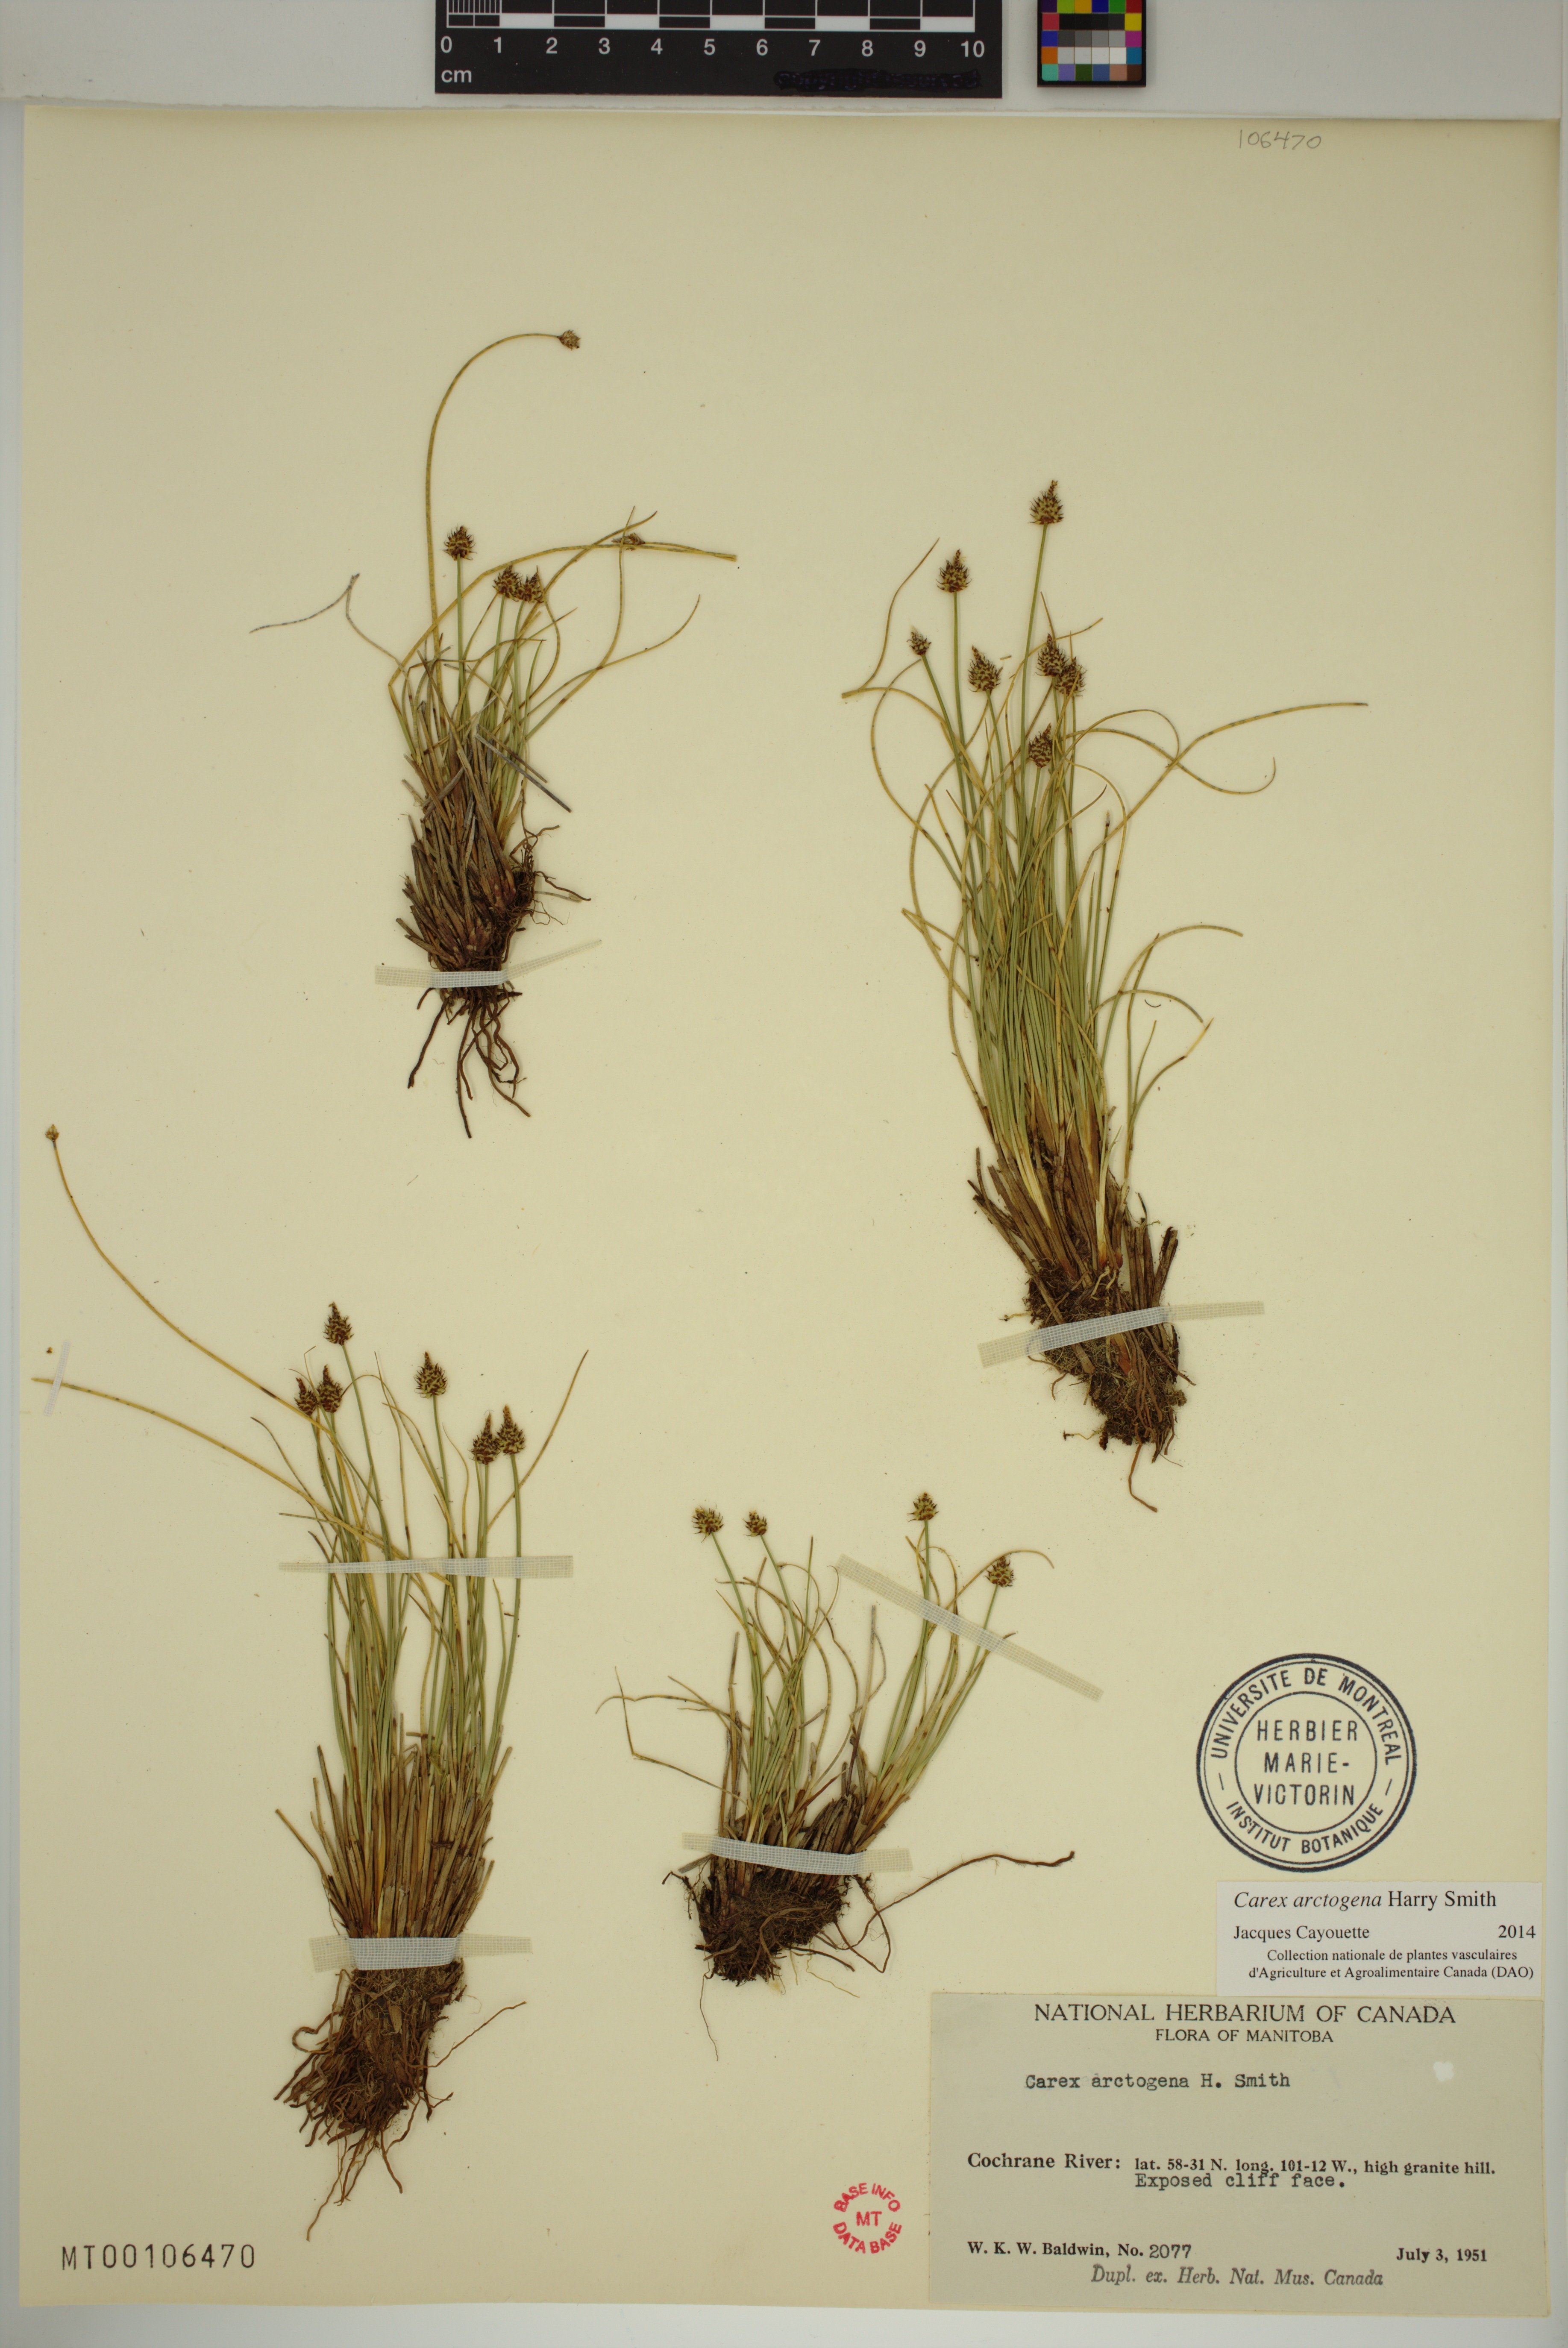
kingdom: Plantae
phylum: Tracheophyta
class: Liliopsida
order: Poales
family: Cyperaceae
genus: Carex
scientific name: Carex arctogena
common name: Black sedge
